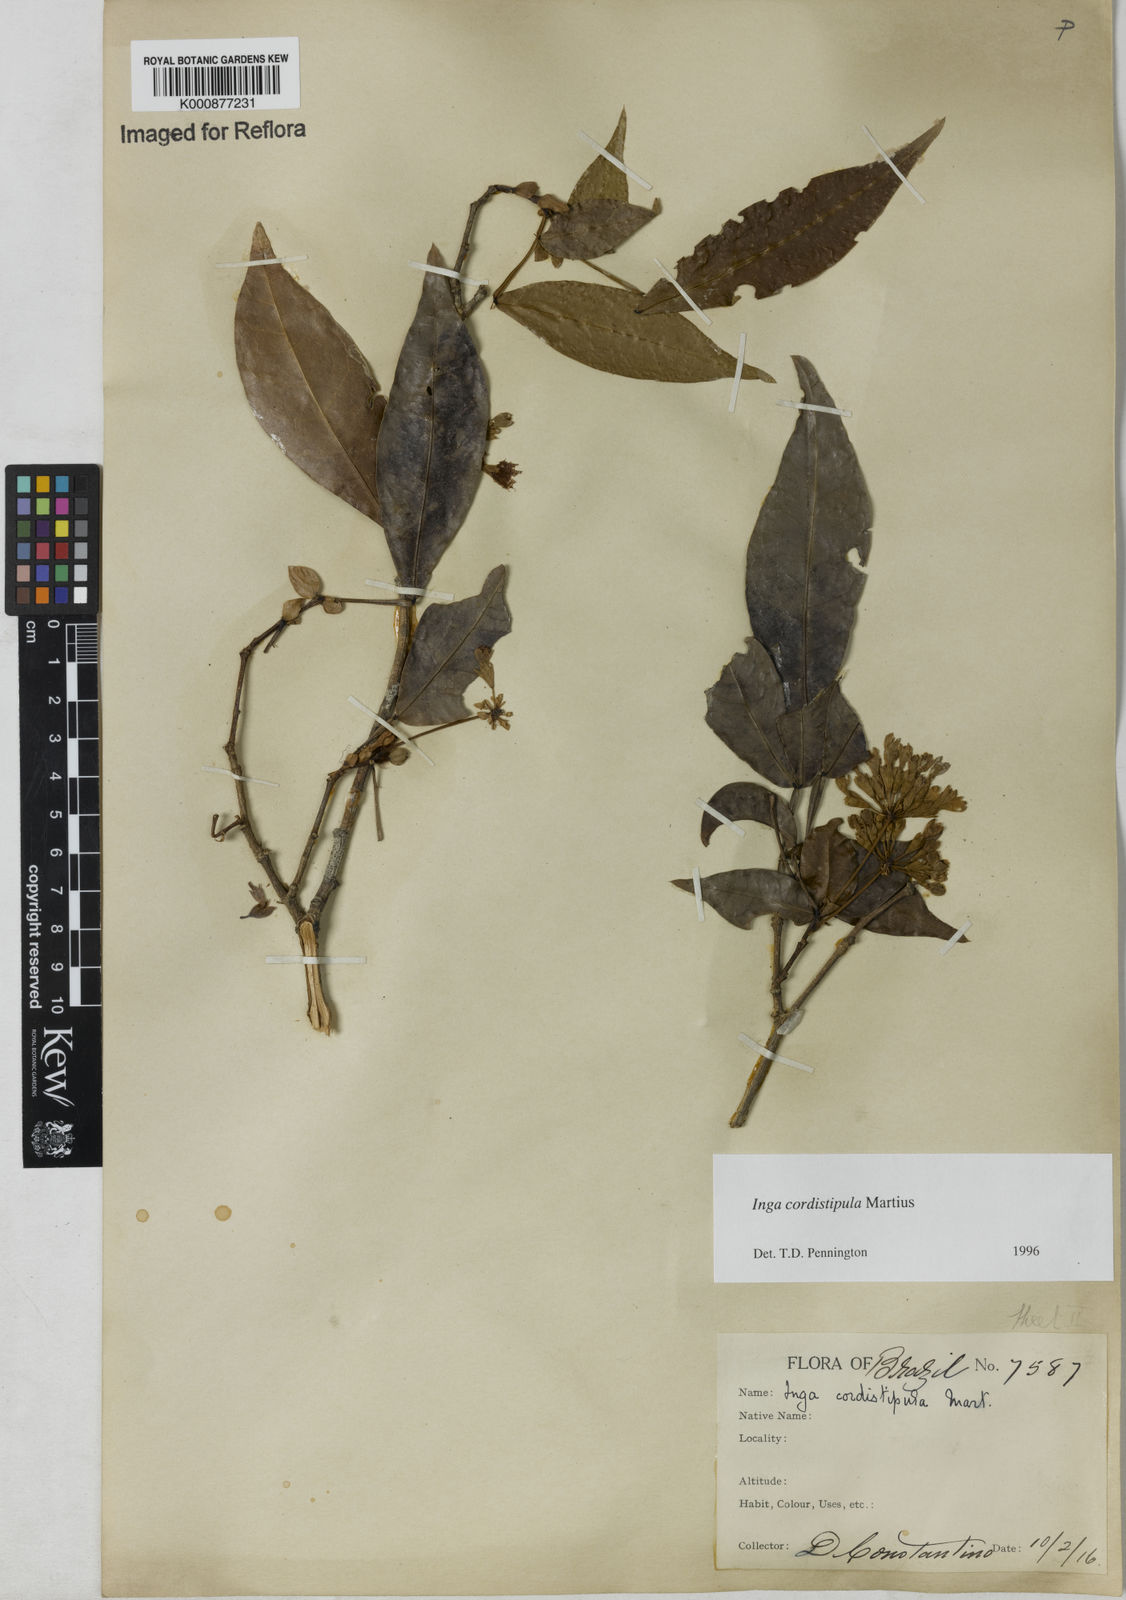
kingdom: Plantae
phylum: Tracheophyta
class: Magnoliopsida
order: Fabales
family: Fabaceae
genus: Inga
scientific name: Inga cordistipula
